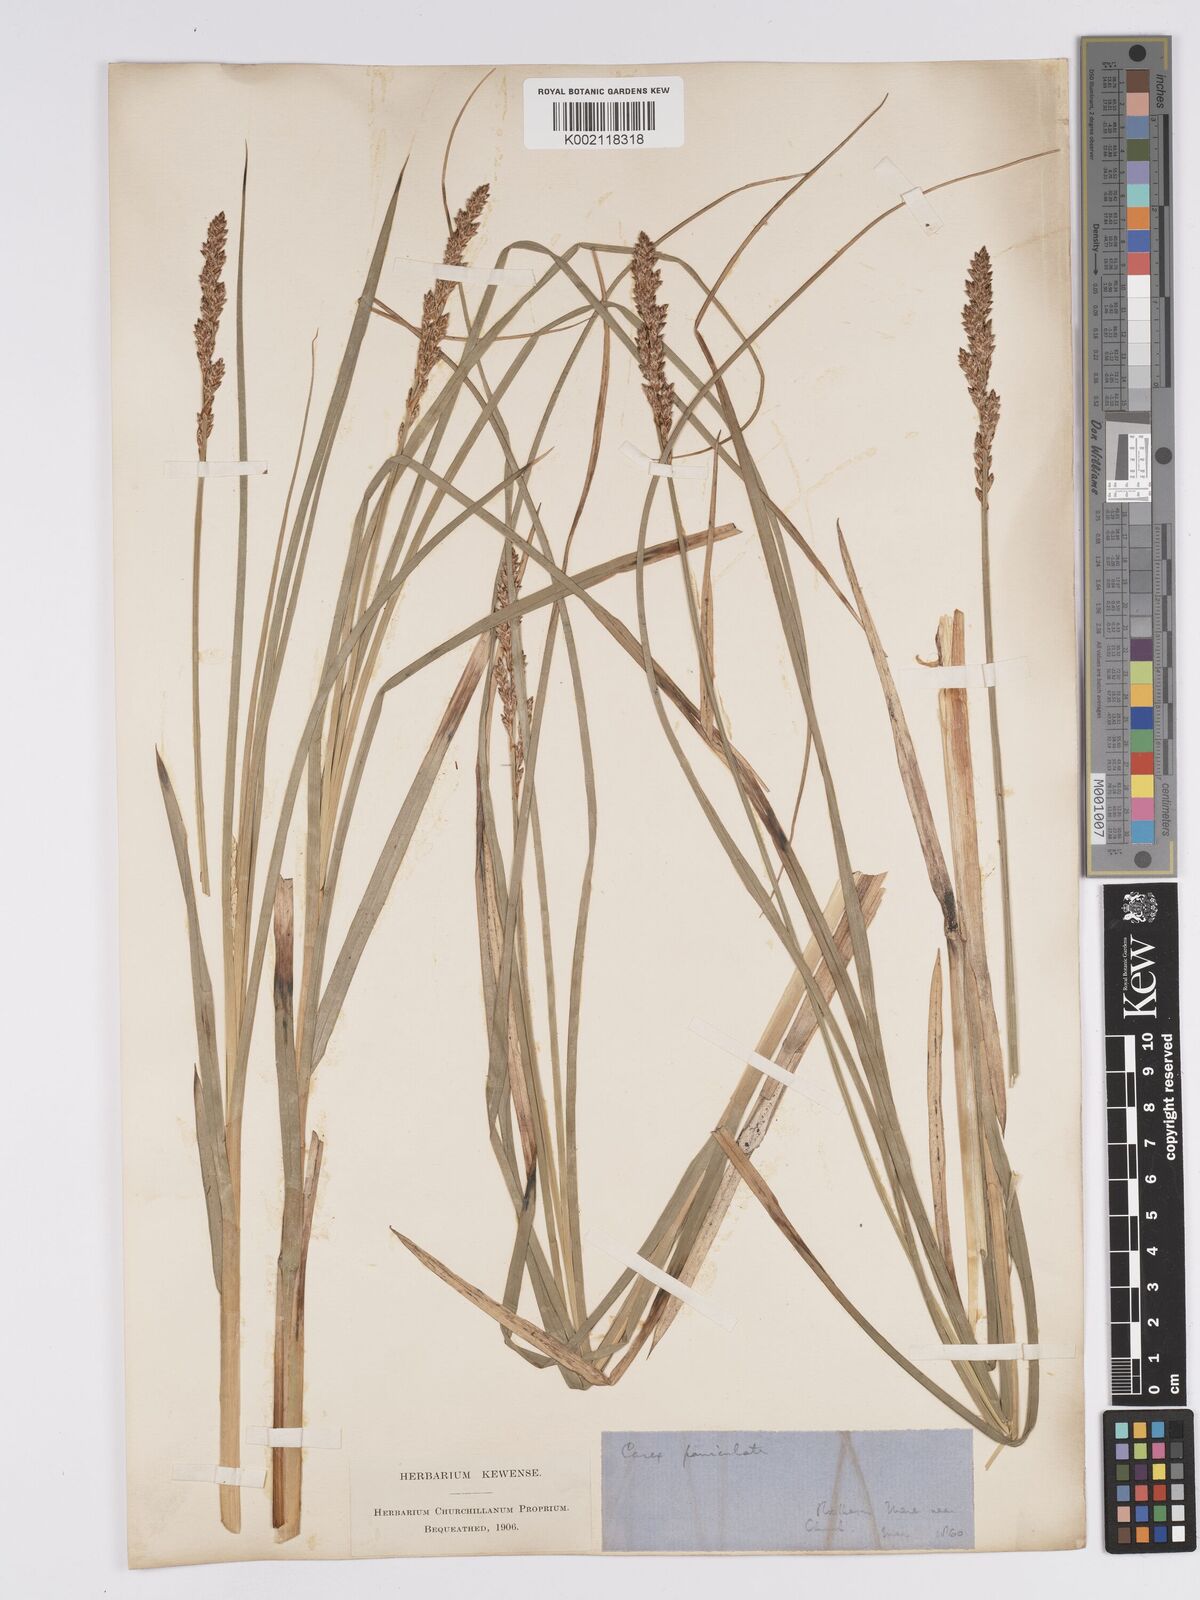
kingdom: Plantae
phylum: Tracheophyta
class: Liliopsida
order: Poales
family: Cyperaceae
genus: Carex
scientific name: Carex paniculata
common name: Greater tussock-sedge
